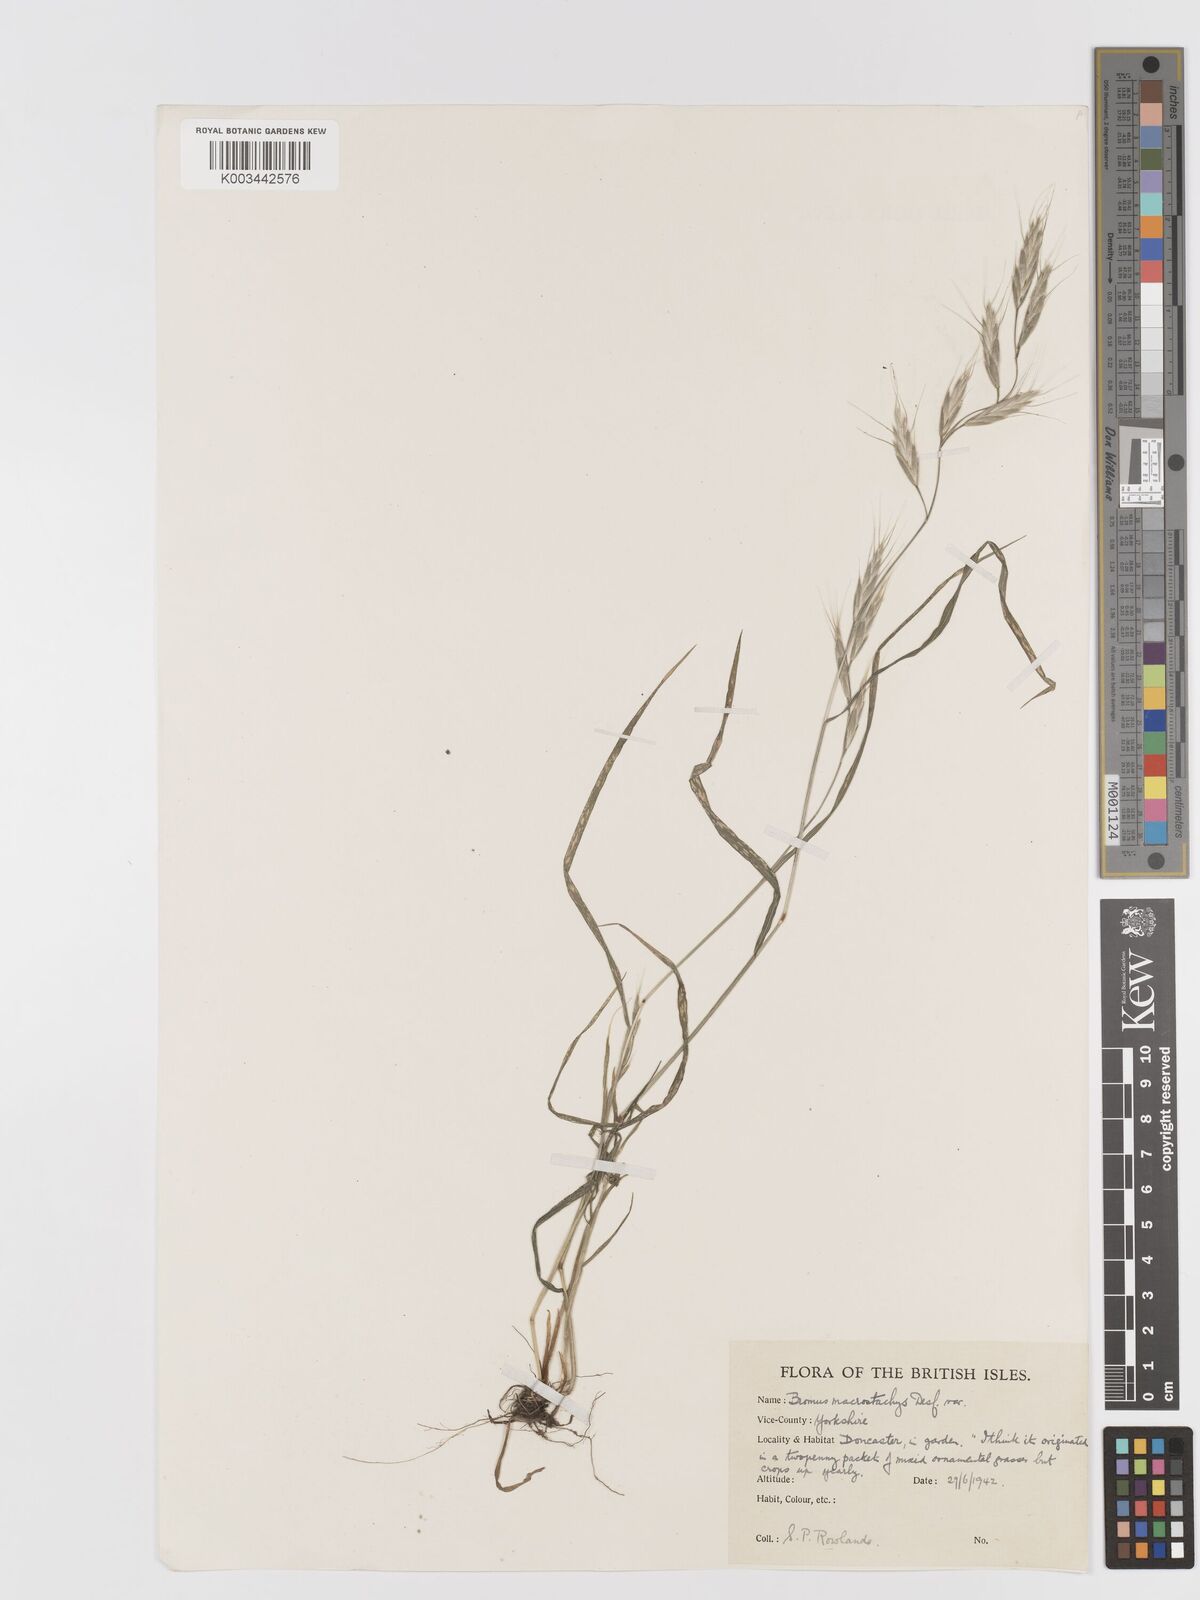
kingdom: Plantae
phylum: Tracheophyta
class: Liliopsida
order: Poales
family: Poaceae
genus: Bromus
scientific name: Bromus lanceolatus
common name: Mediterranean brome
